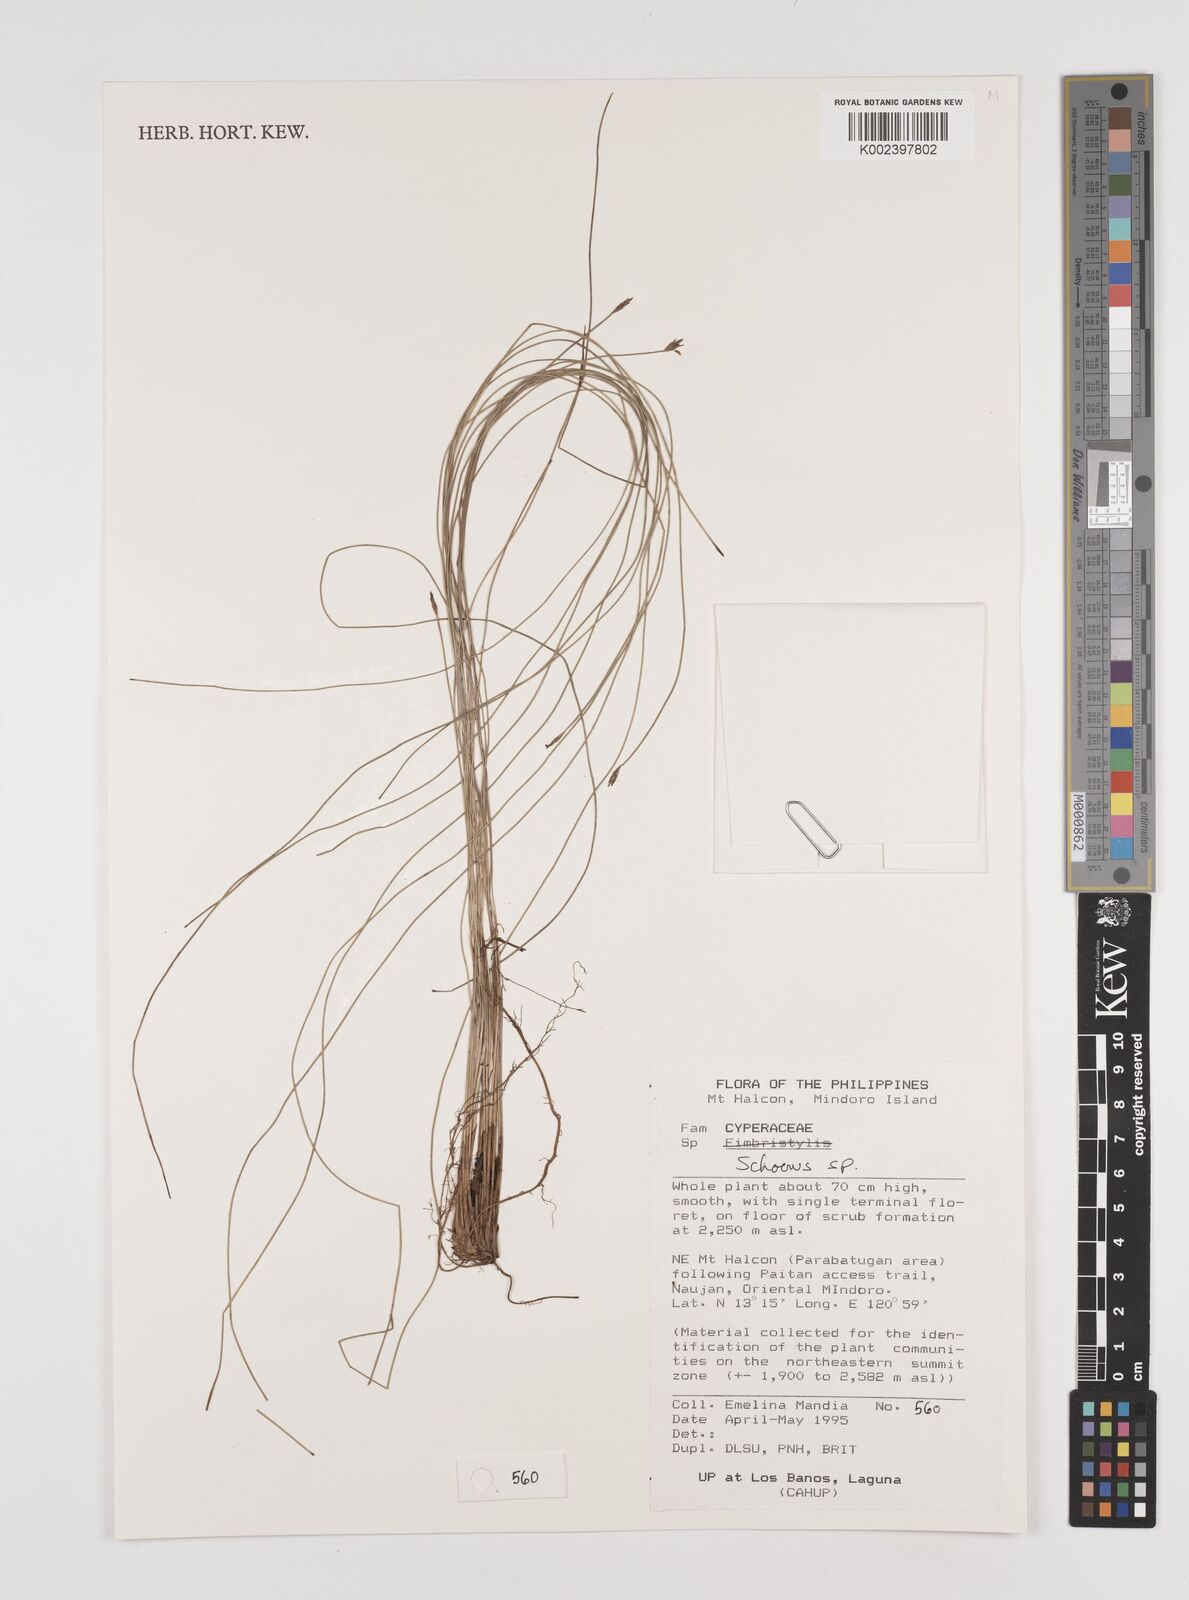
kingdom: Plantae
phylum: Tracheophyta
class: Liliopsida
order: Poales
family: Cyperaceae
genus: Schoenus
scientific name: Schoenus
